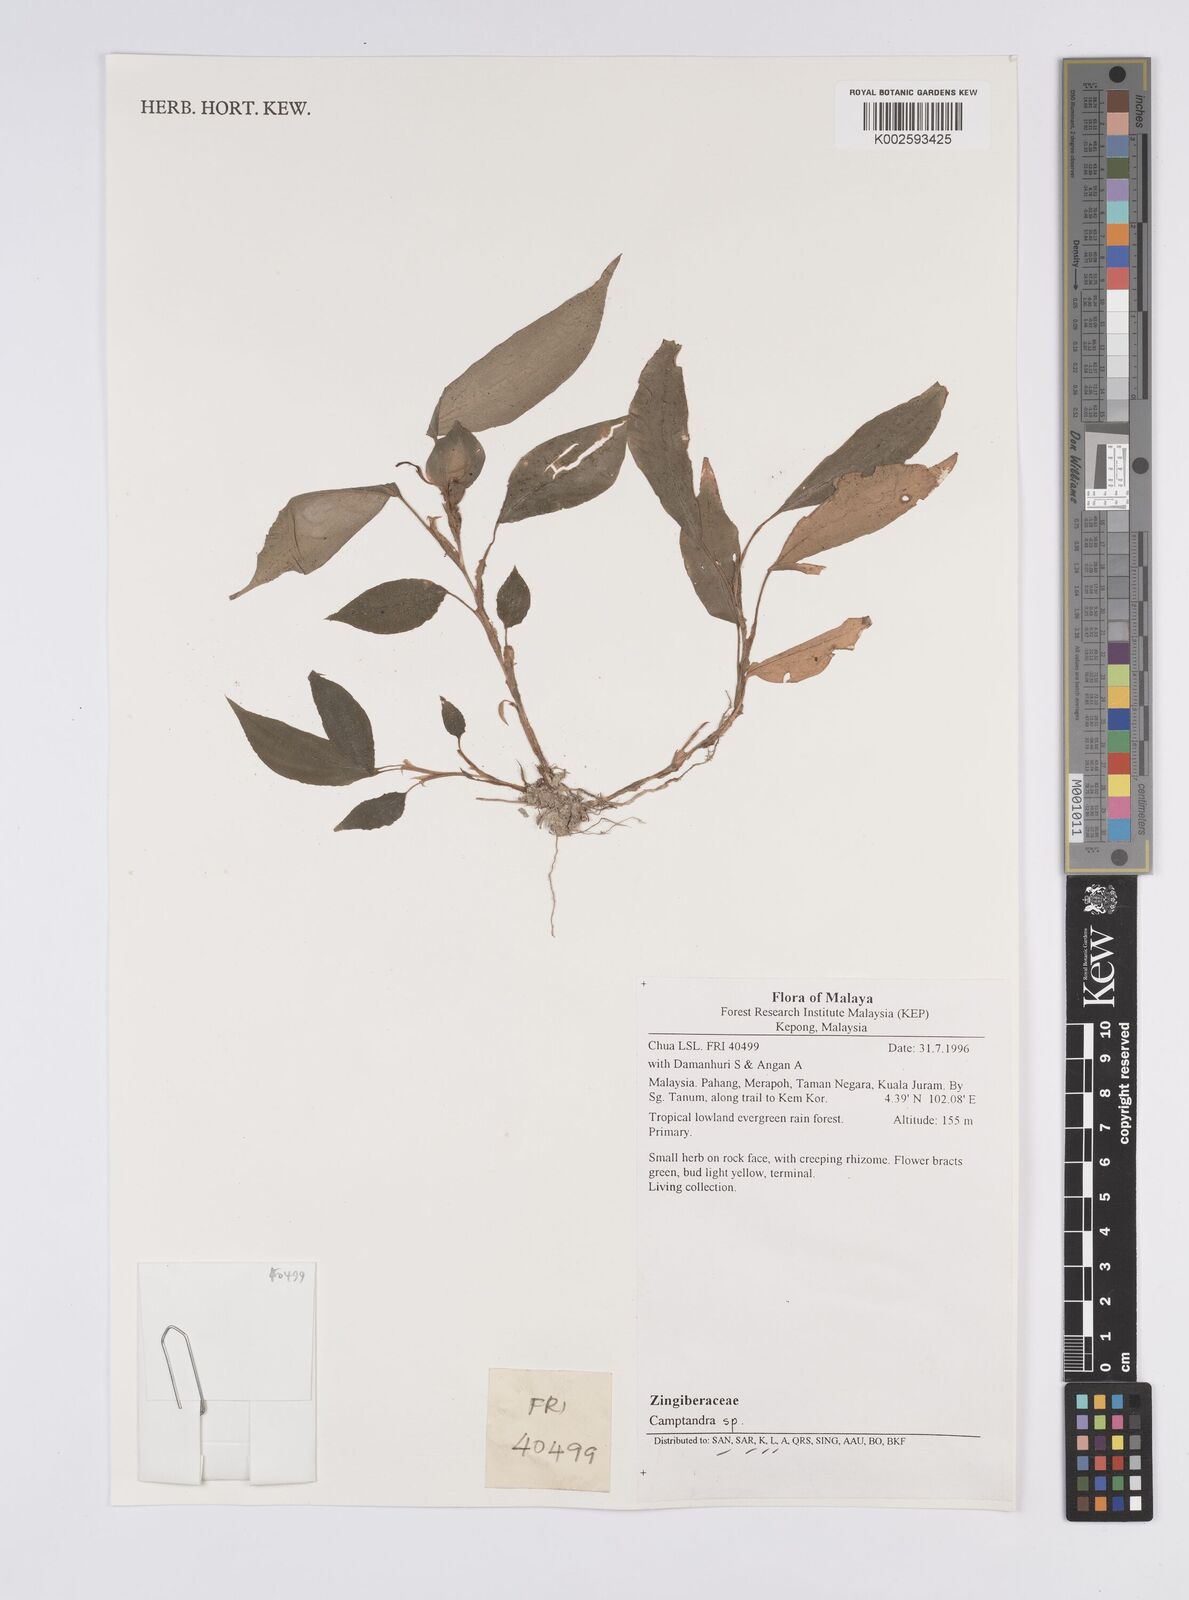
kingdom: Plantae
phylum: Tracheophyta
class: Liliopsida
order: Zingiberales
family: Zingiberaceae
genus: Camptandra
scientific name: Camptandra parvula
